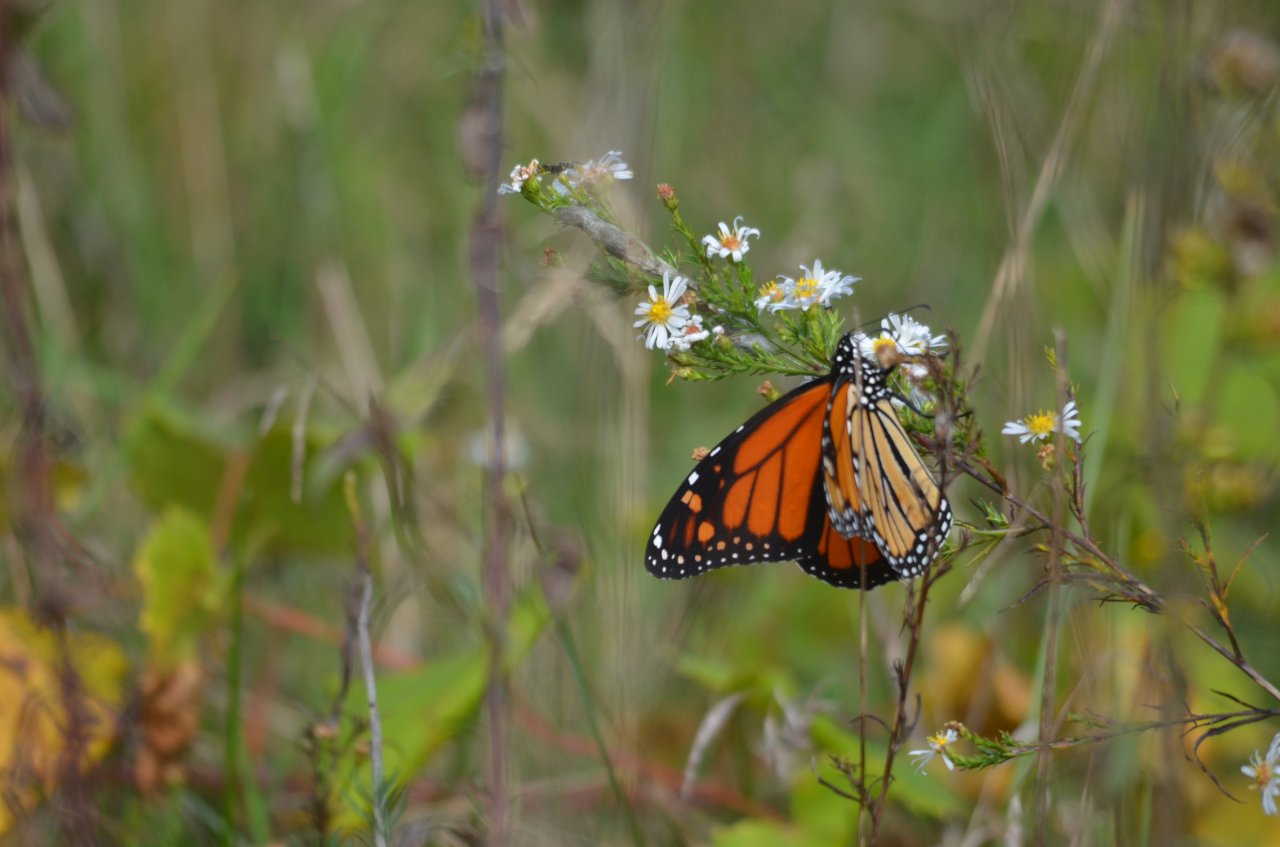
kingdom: Animalia
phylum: Arthropoda
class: Insecta
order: Lepidoptera
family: Nymphalidae
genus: Danaus
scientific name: Danaus plexippus
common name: Monarch
